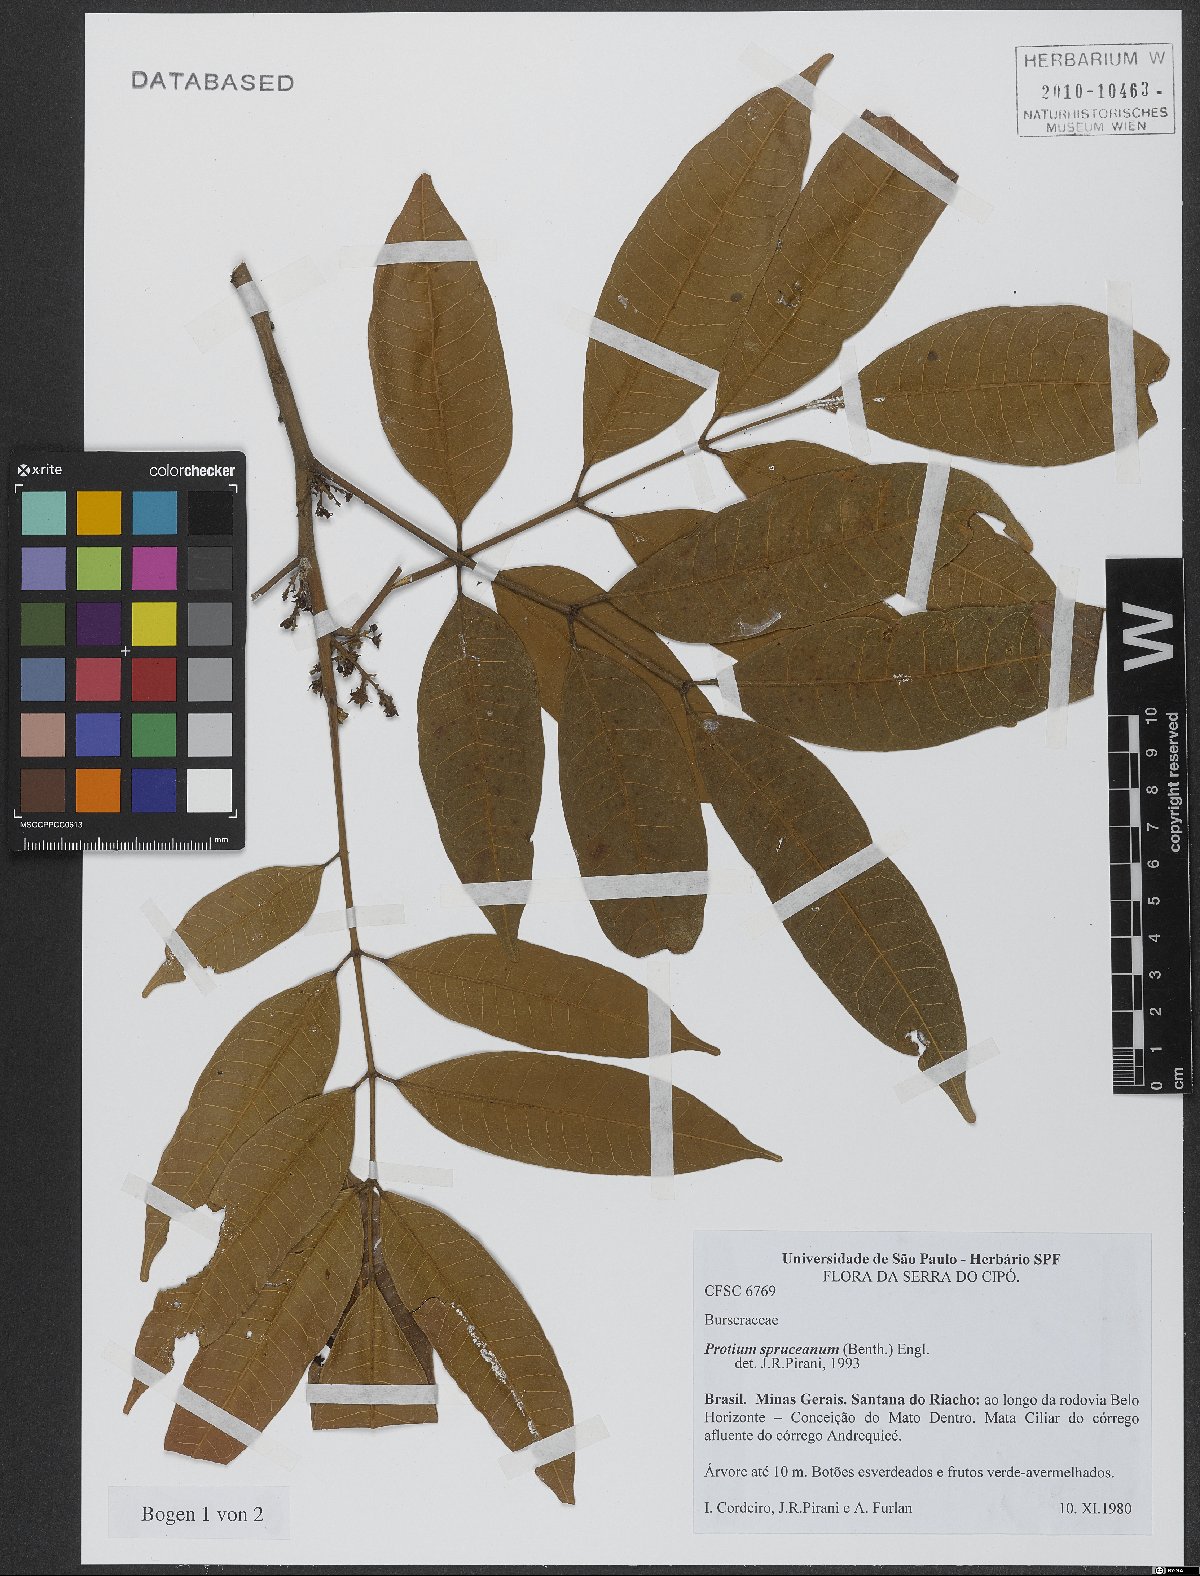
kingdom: Plantae
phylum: Tracheophyta
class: Magnoliopsida
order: Sapindales
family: Burseraceae
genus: Protium
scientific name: Protium spruceanum
